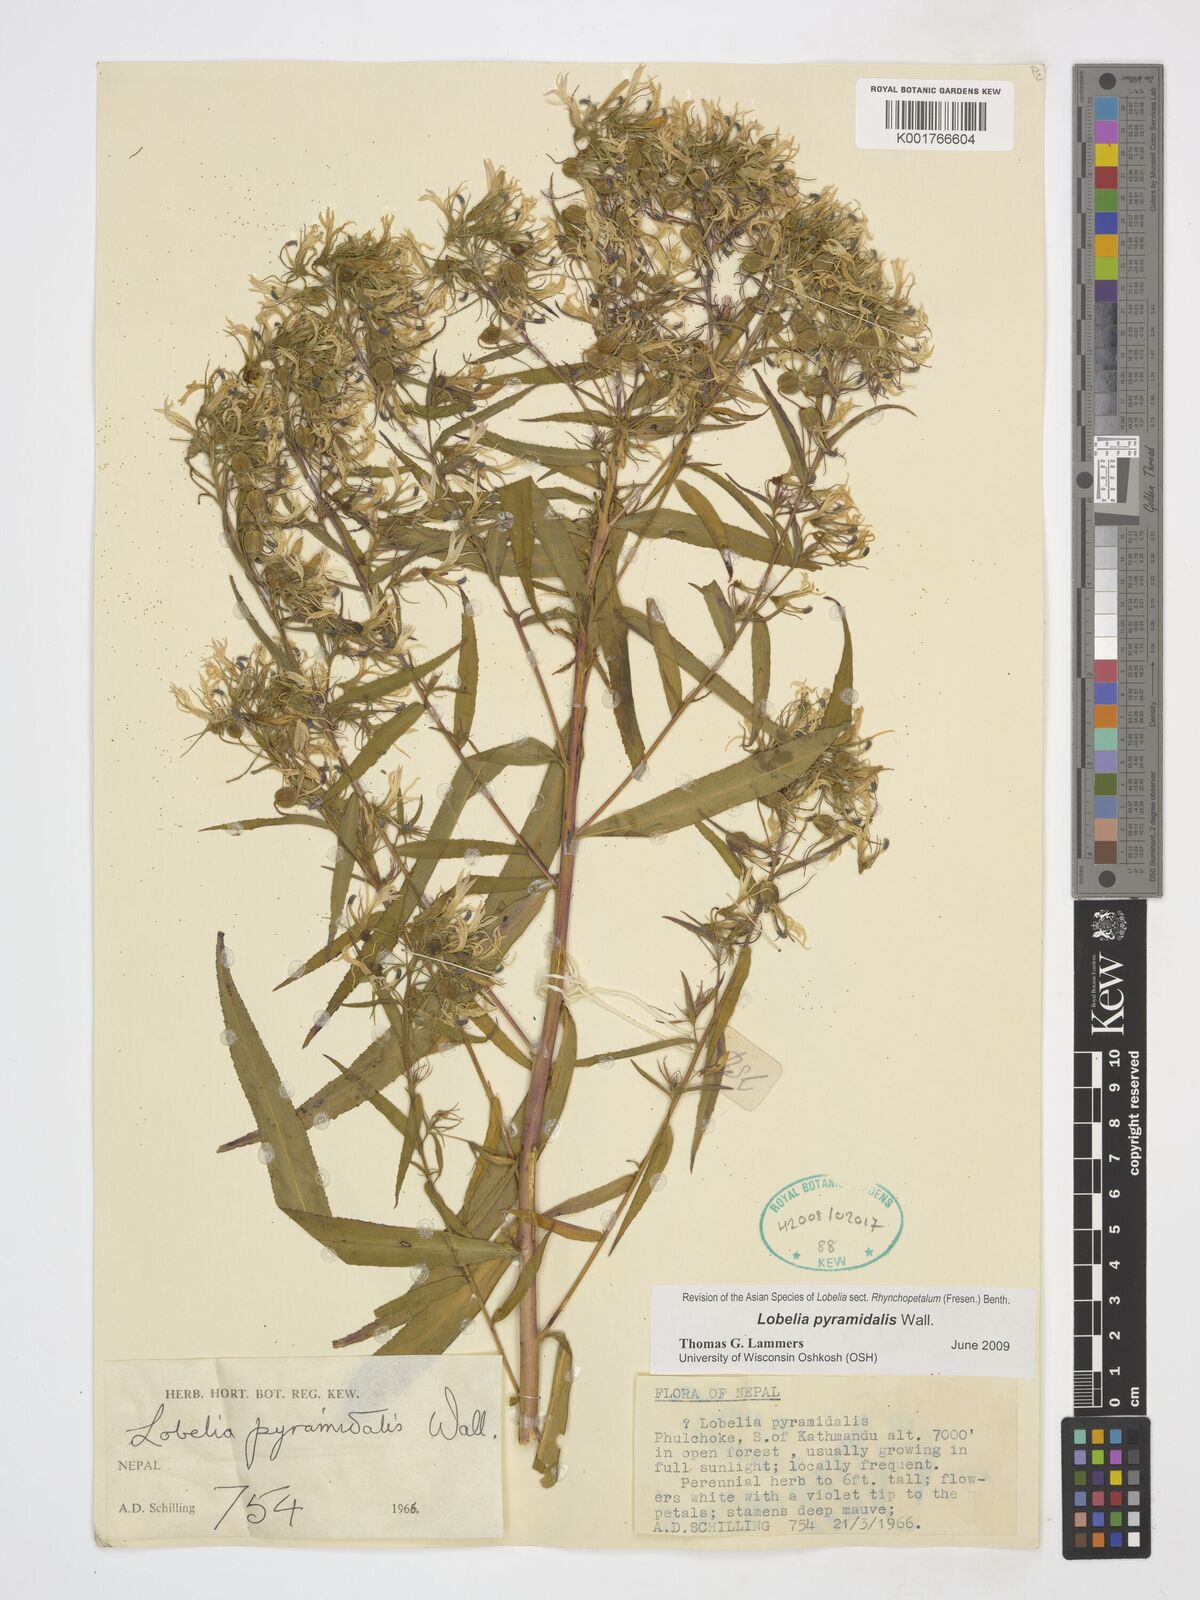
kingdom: Plantae
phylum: Tracheophyta
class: Magnoliopsida
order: Asterales
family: Campanulaceae
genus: Lobelia
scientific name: Lobelia pyramidalis
